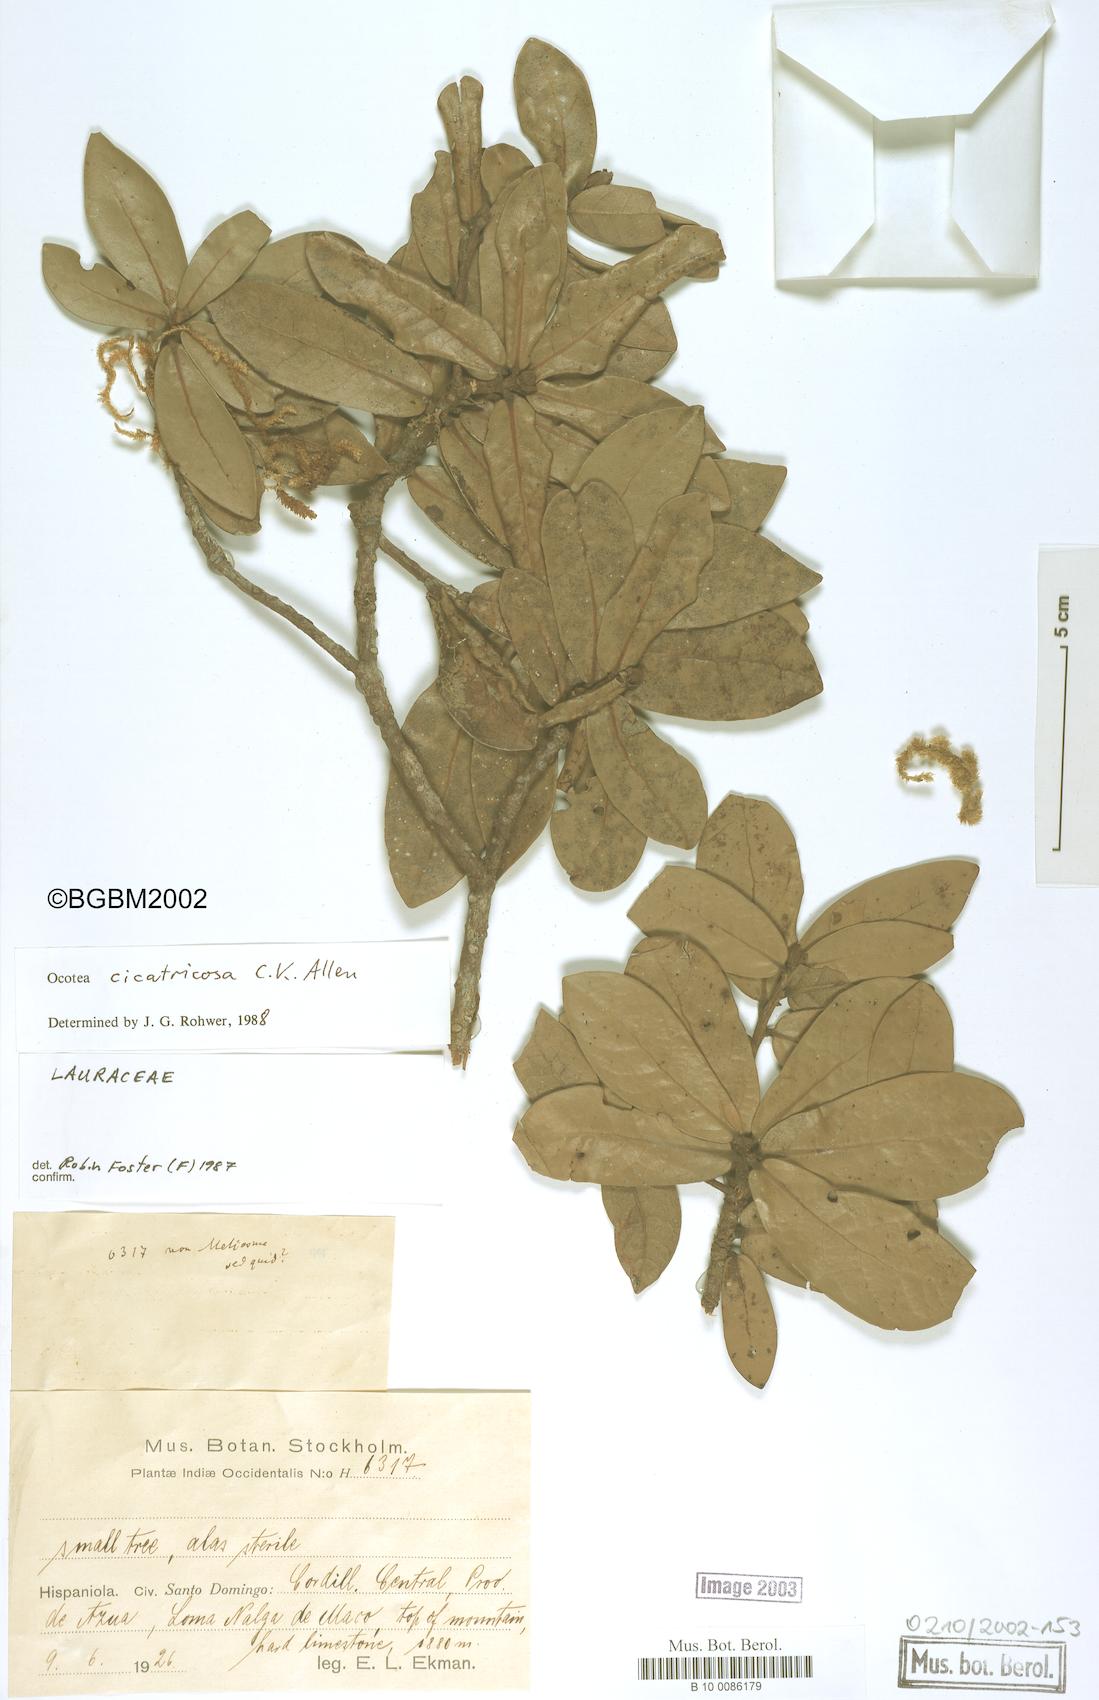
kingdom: Plantae
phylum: Tracheophyta
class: Magnoliopsida
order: Laurales
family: Lauraceae
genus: Ocotea
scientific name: Ocotea cicatricosa
